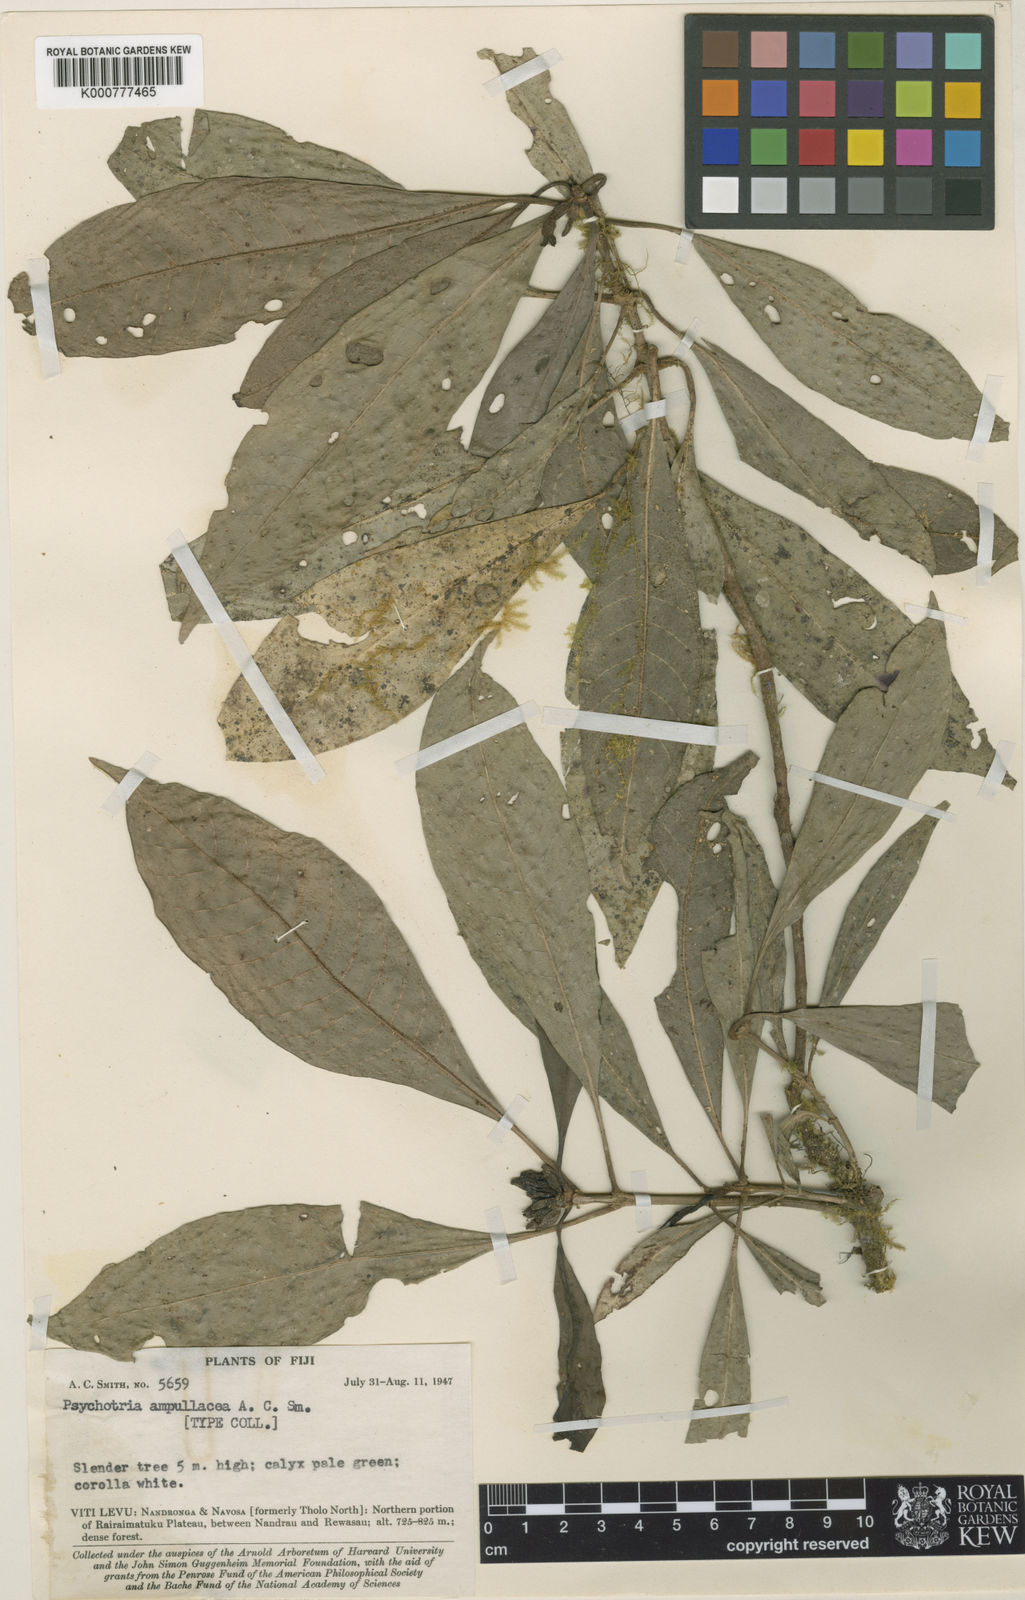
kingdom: Plantae
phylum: Tracheophyta
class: Magnoliopsida
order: Gentianales
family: Rubiaceae
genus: Psychotria
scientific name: Psychotria ampullacea
